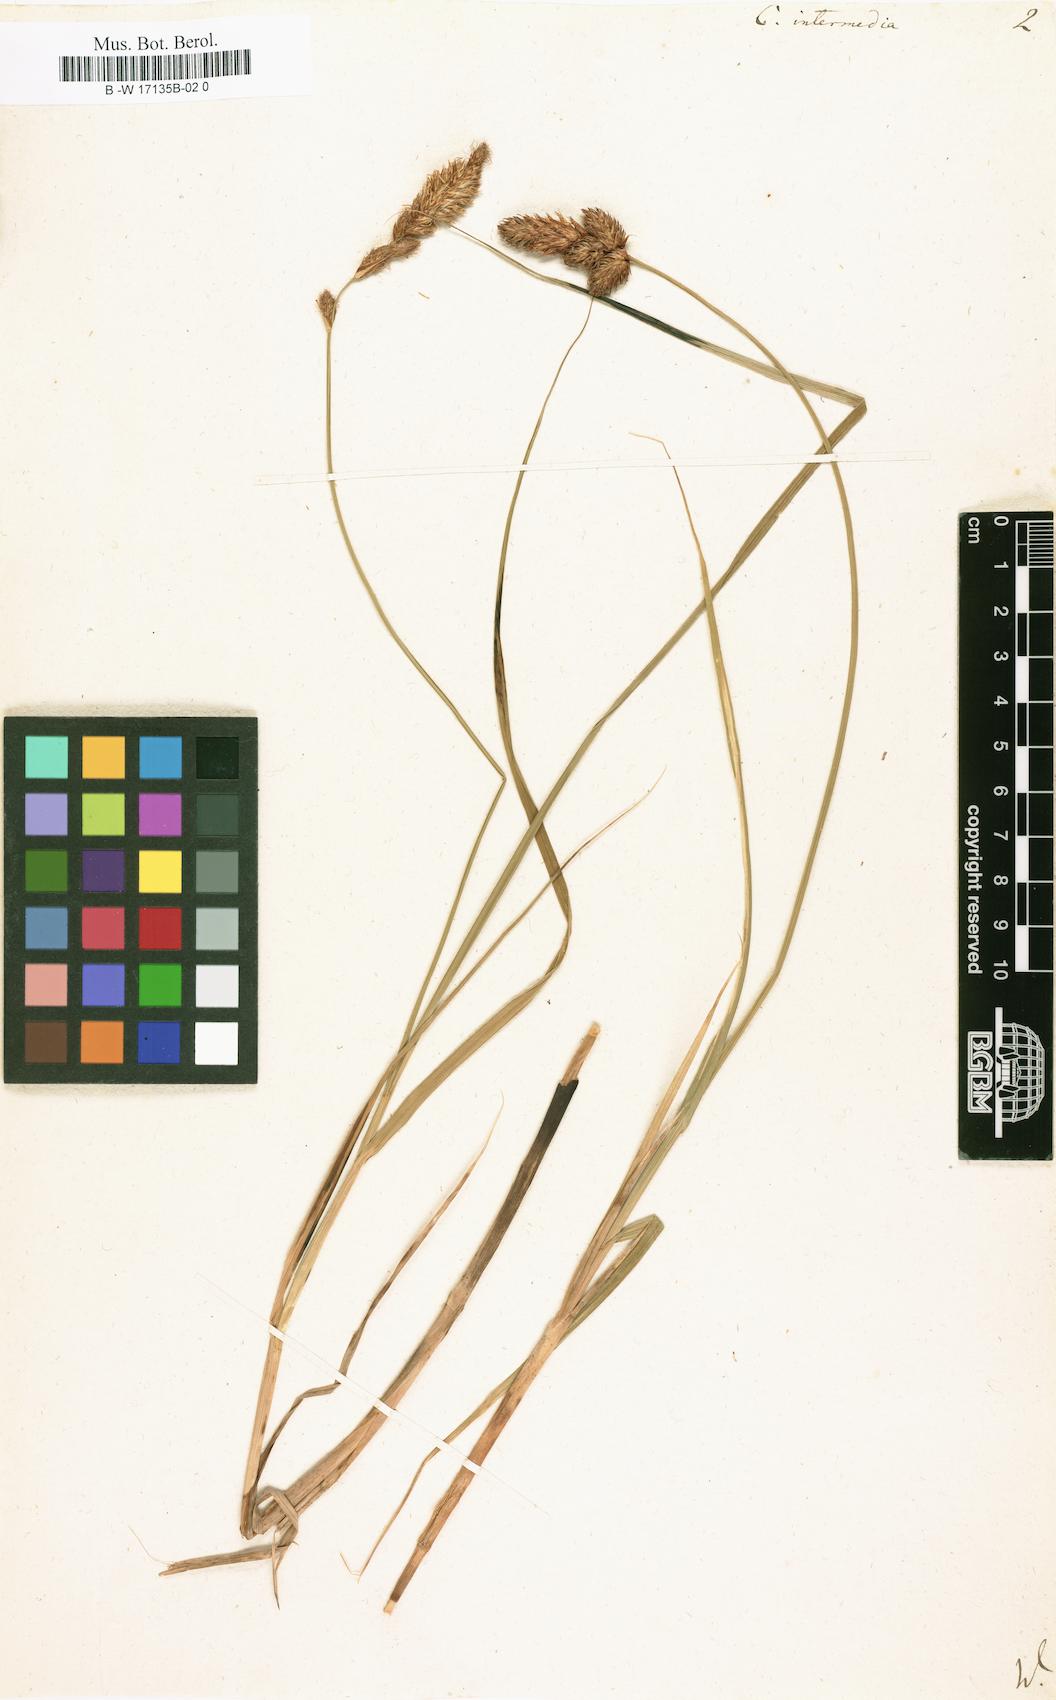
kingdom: Plantae
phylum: Tracheophyta
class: Liliopsida
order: Poales
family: Cyperaceae
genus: Carex
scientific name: Carex muricata
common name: Rough sedge
